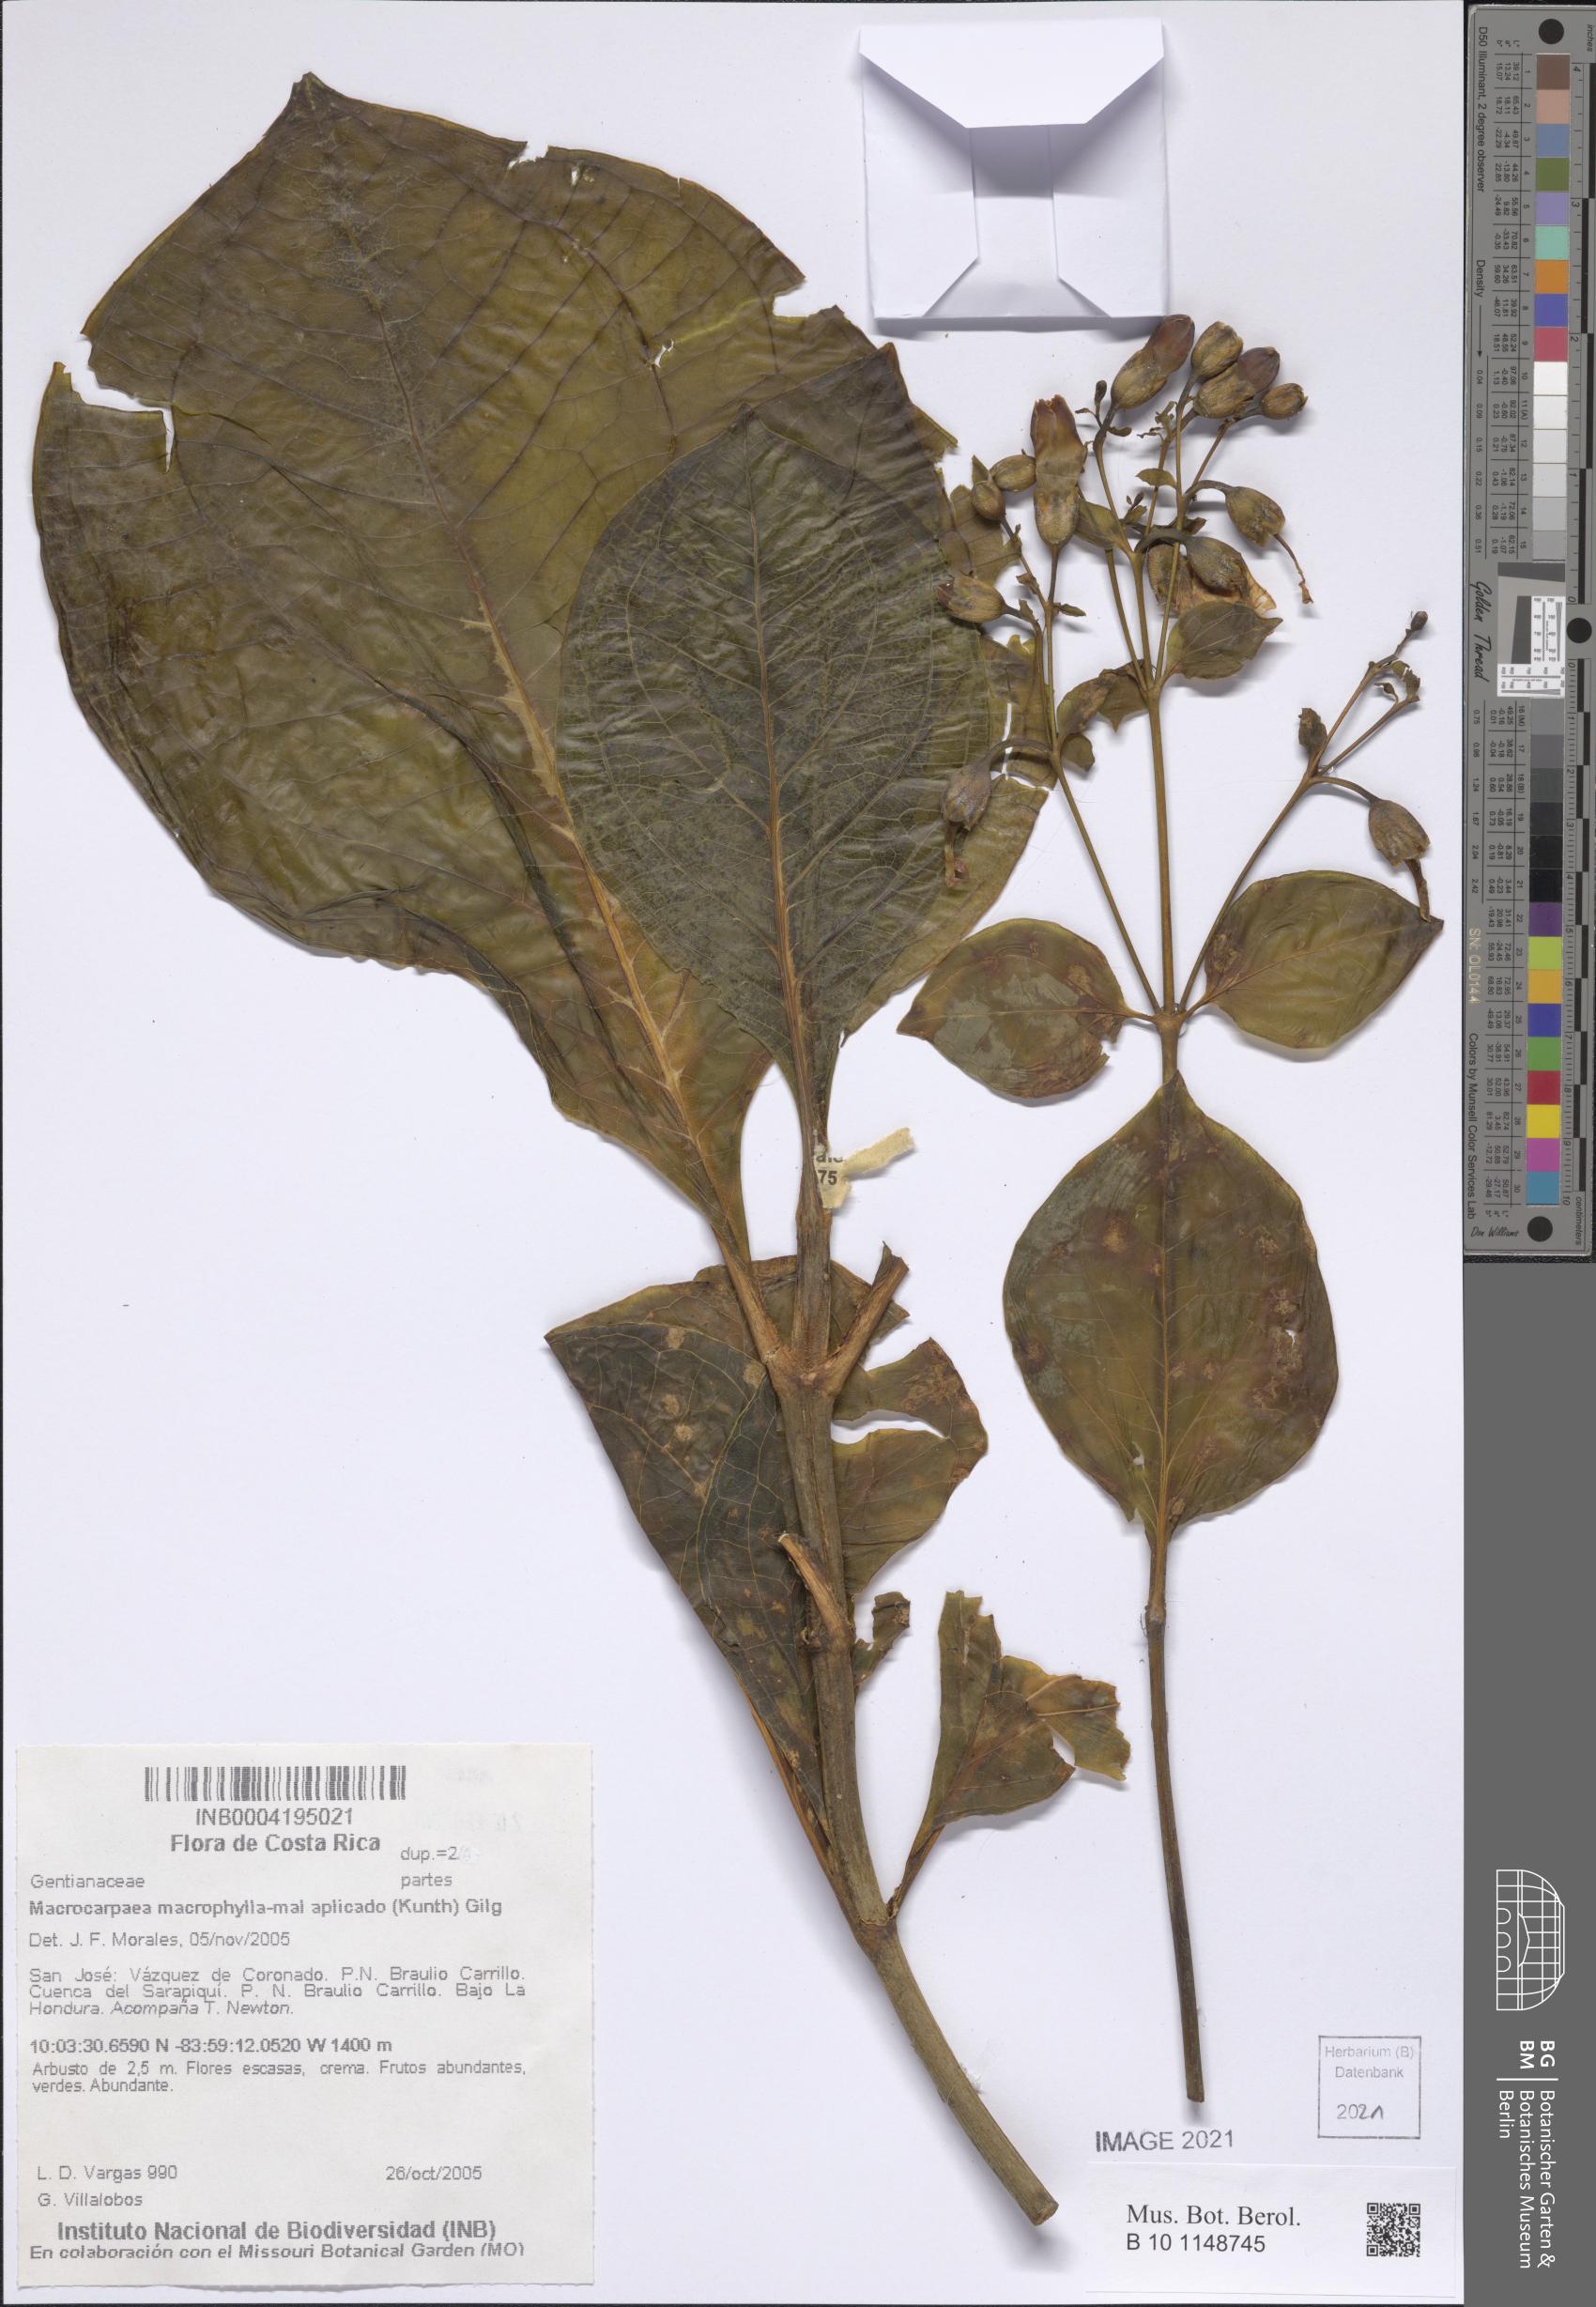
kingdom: Plantae
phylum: Tracheophyta
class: Magnoliopsida
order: Gentianales
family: Gentianaceae
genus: Macrocarpaea
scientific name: Macrocarpaea
